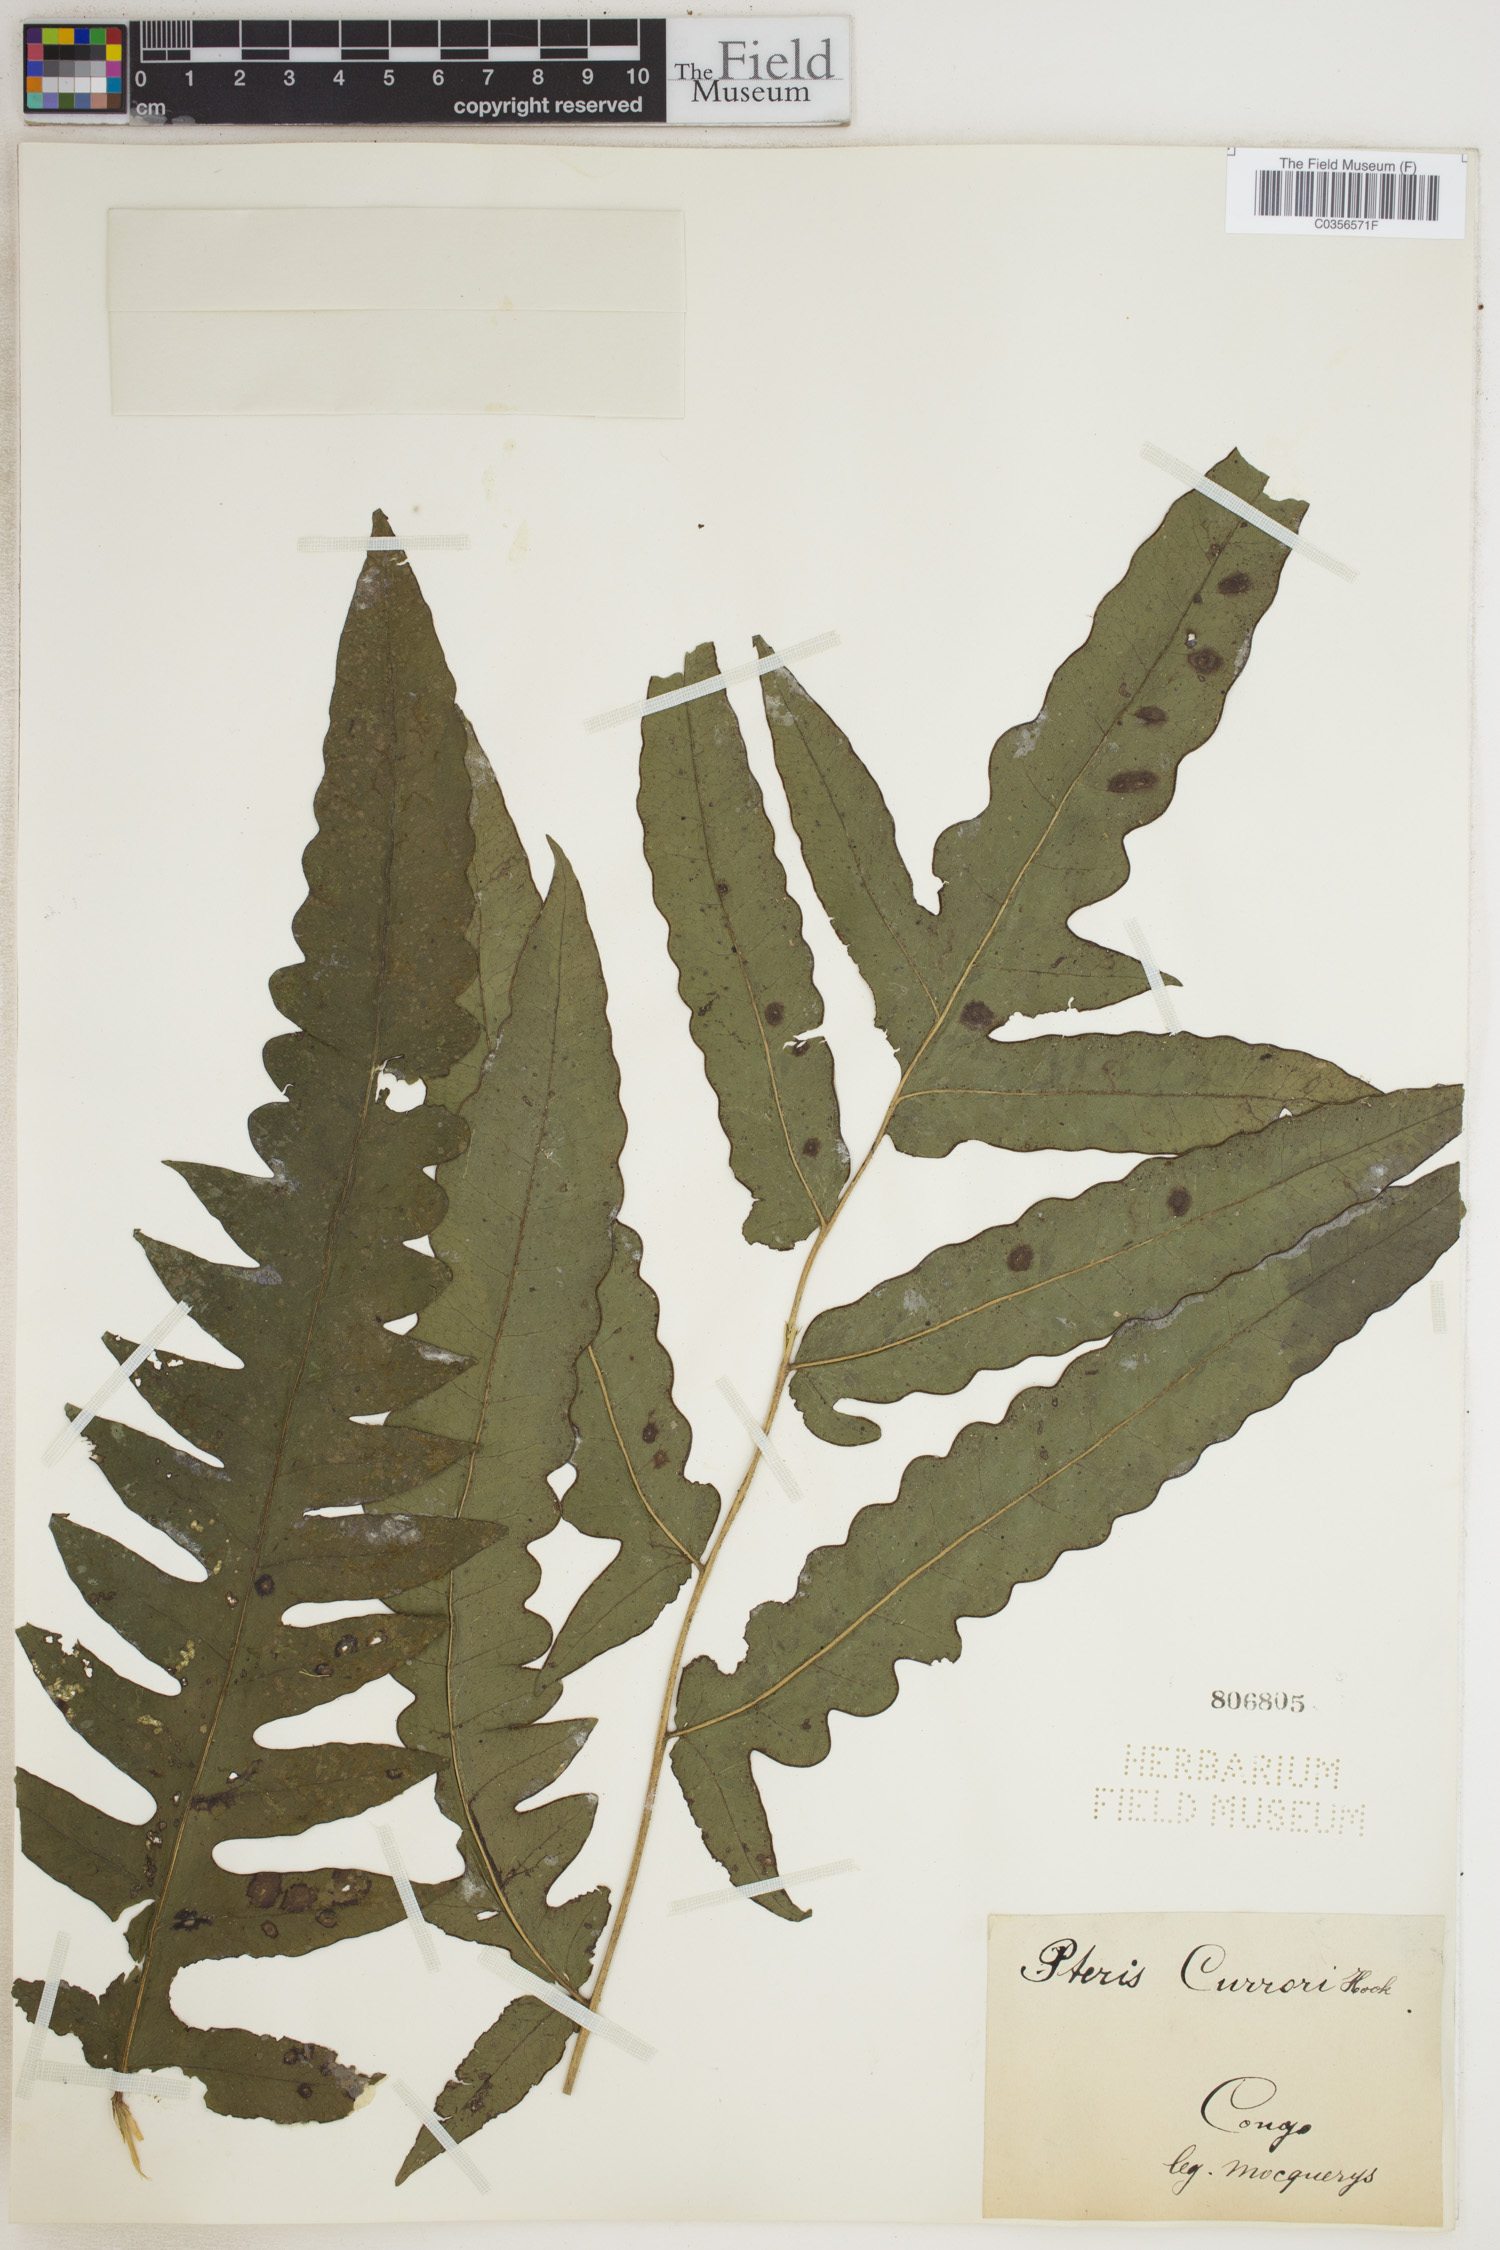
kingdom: Plantae
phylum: Tracheophyta
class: Polypodiopsida
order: Polypodiales
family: Dennstaedtiaceae
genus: Blotiella
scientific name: Blotiella currorii
